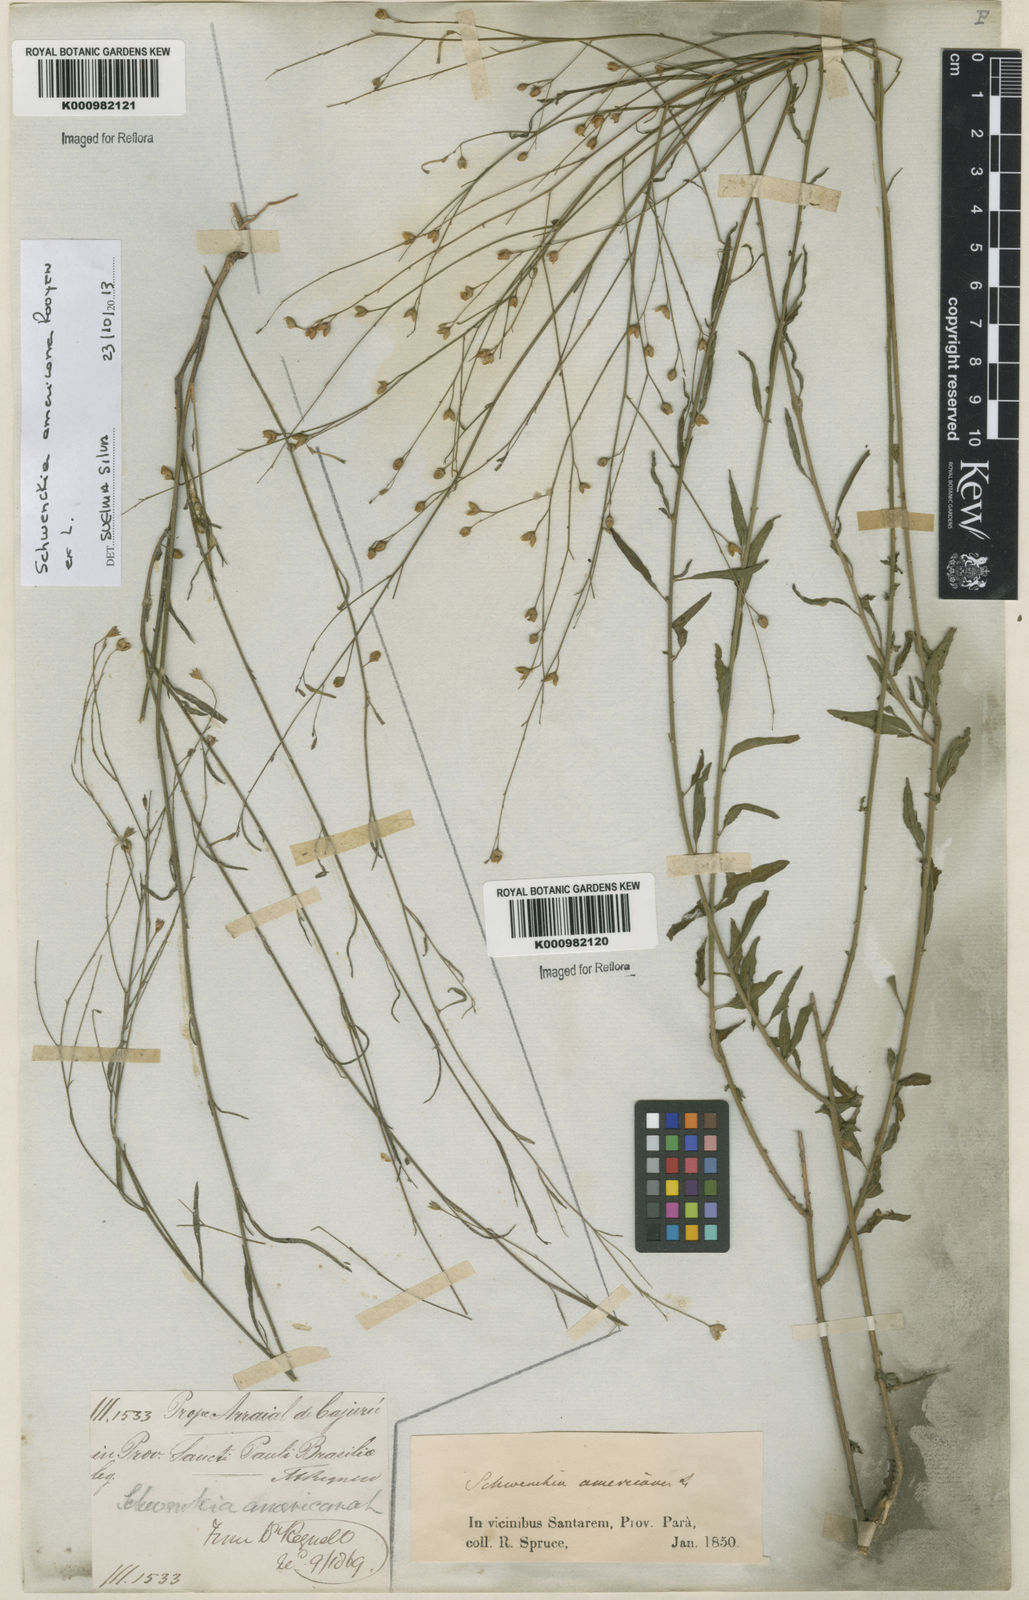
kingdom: Plantae
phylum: Tracheophyta
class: Magnoliopsida
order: Solanales
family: Solanaceae
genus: Schwenckia
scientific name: Schwenckia americana
